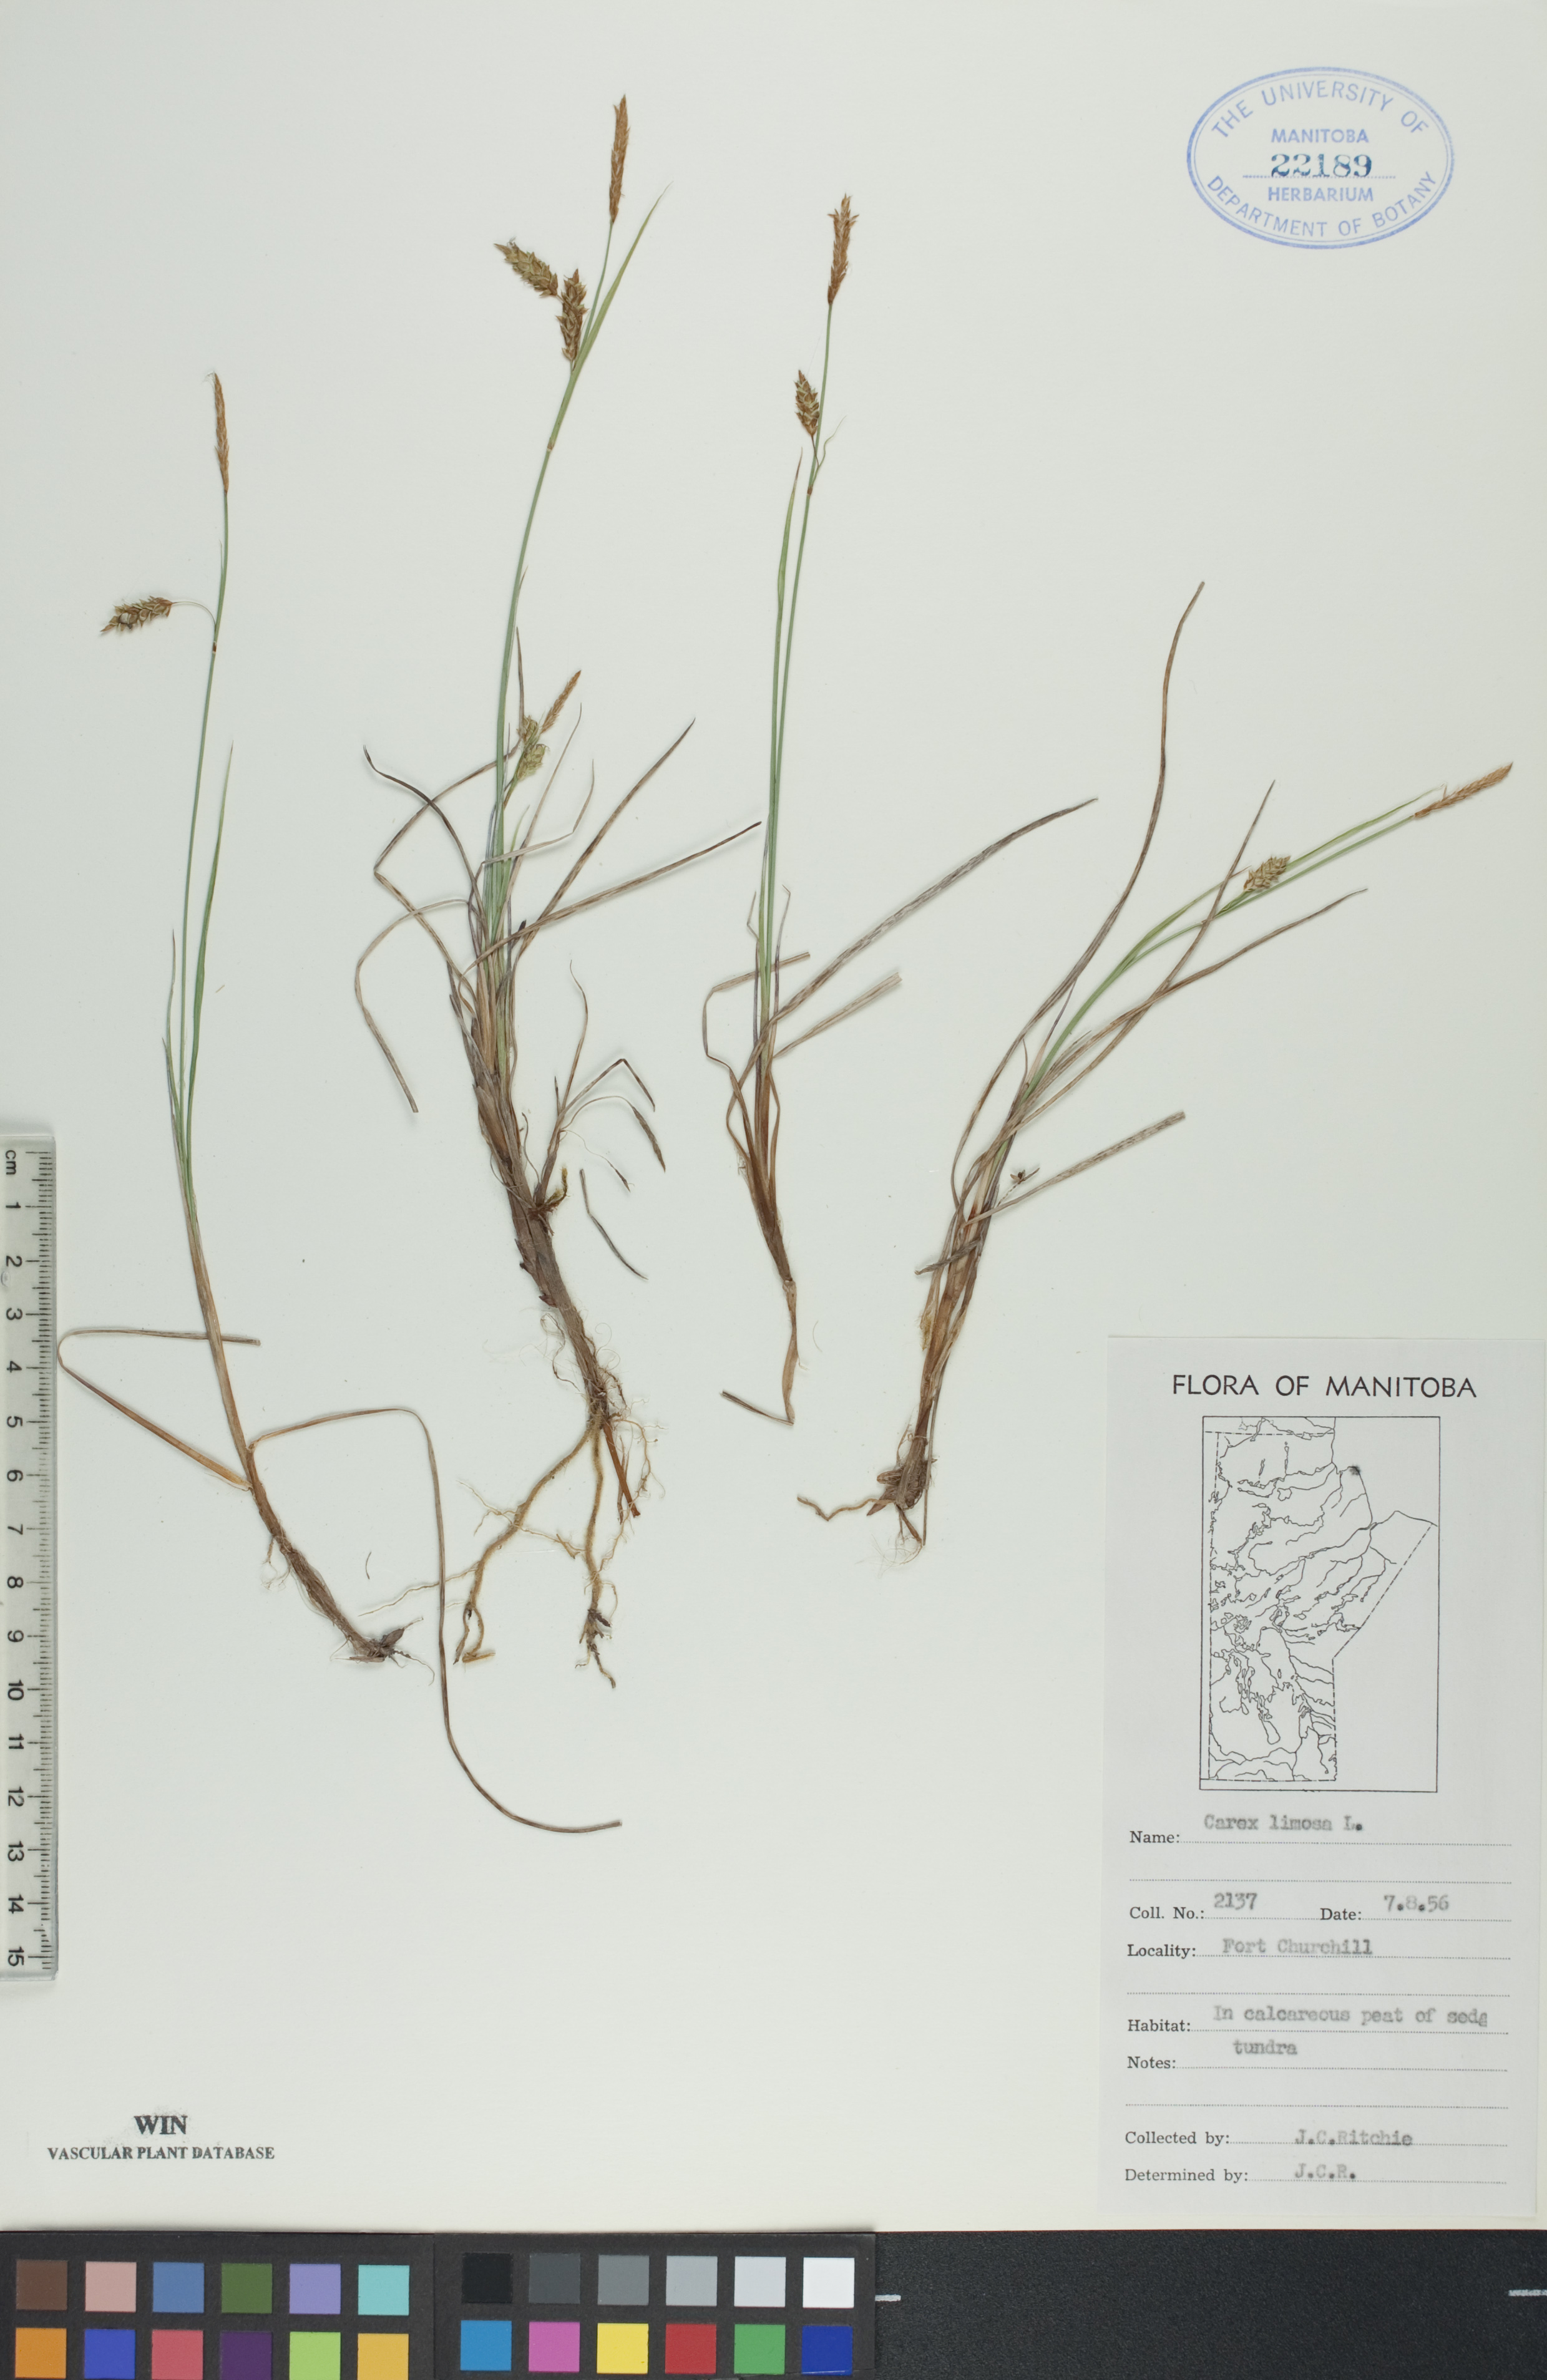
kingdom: Plantae
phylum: Tracheophyta
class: Liliopsida
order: Poales
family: Cyperaceae
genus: Carex
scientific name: Carex limosa
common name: Bog sedge
